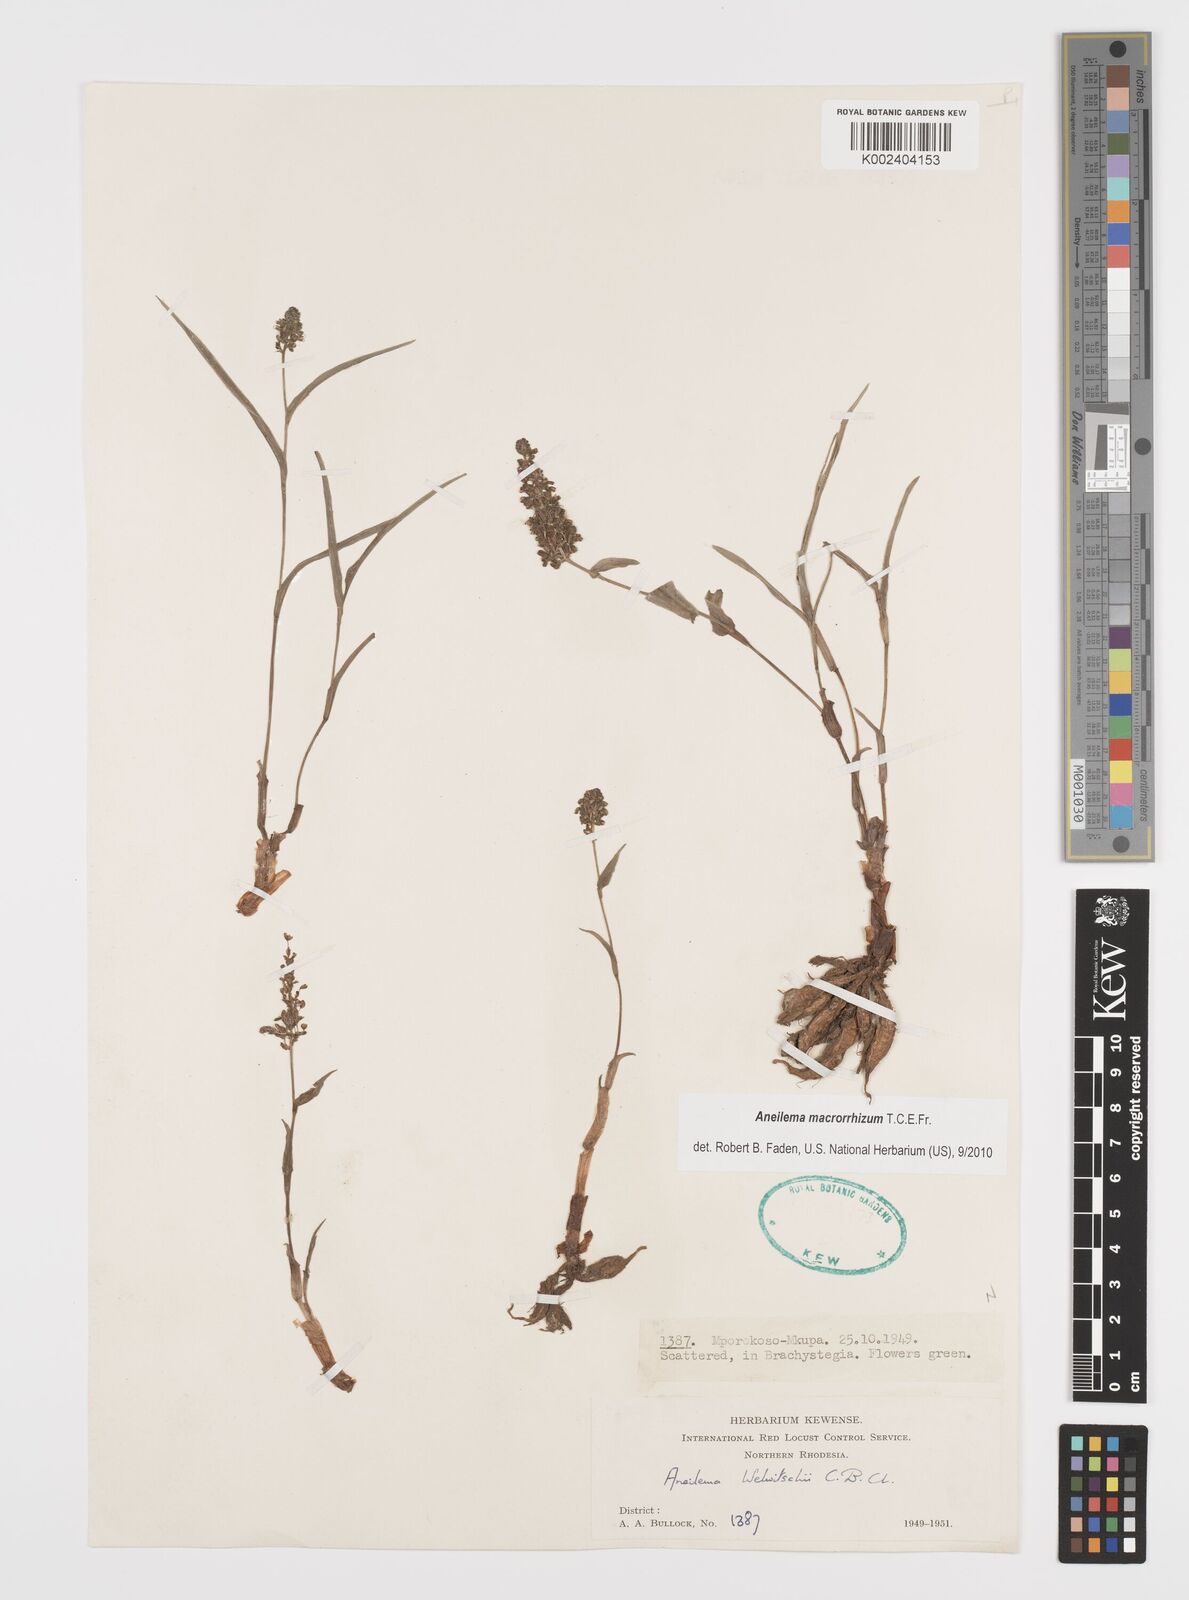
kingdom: Plantae
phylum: Tracheophyta
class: Liliopsida
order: Commelinales
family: Commelinaceae
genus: Aneilema
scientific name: Aneilema macrorrhizum
